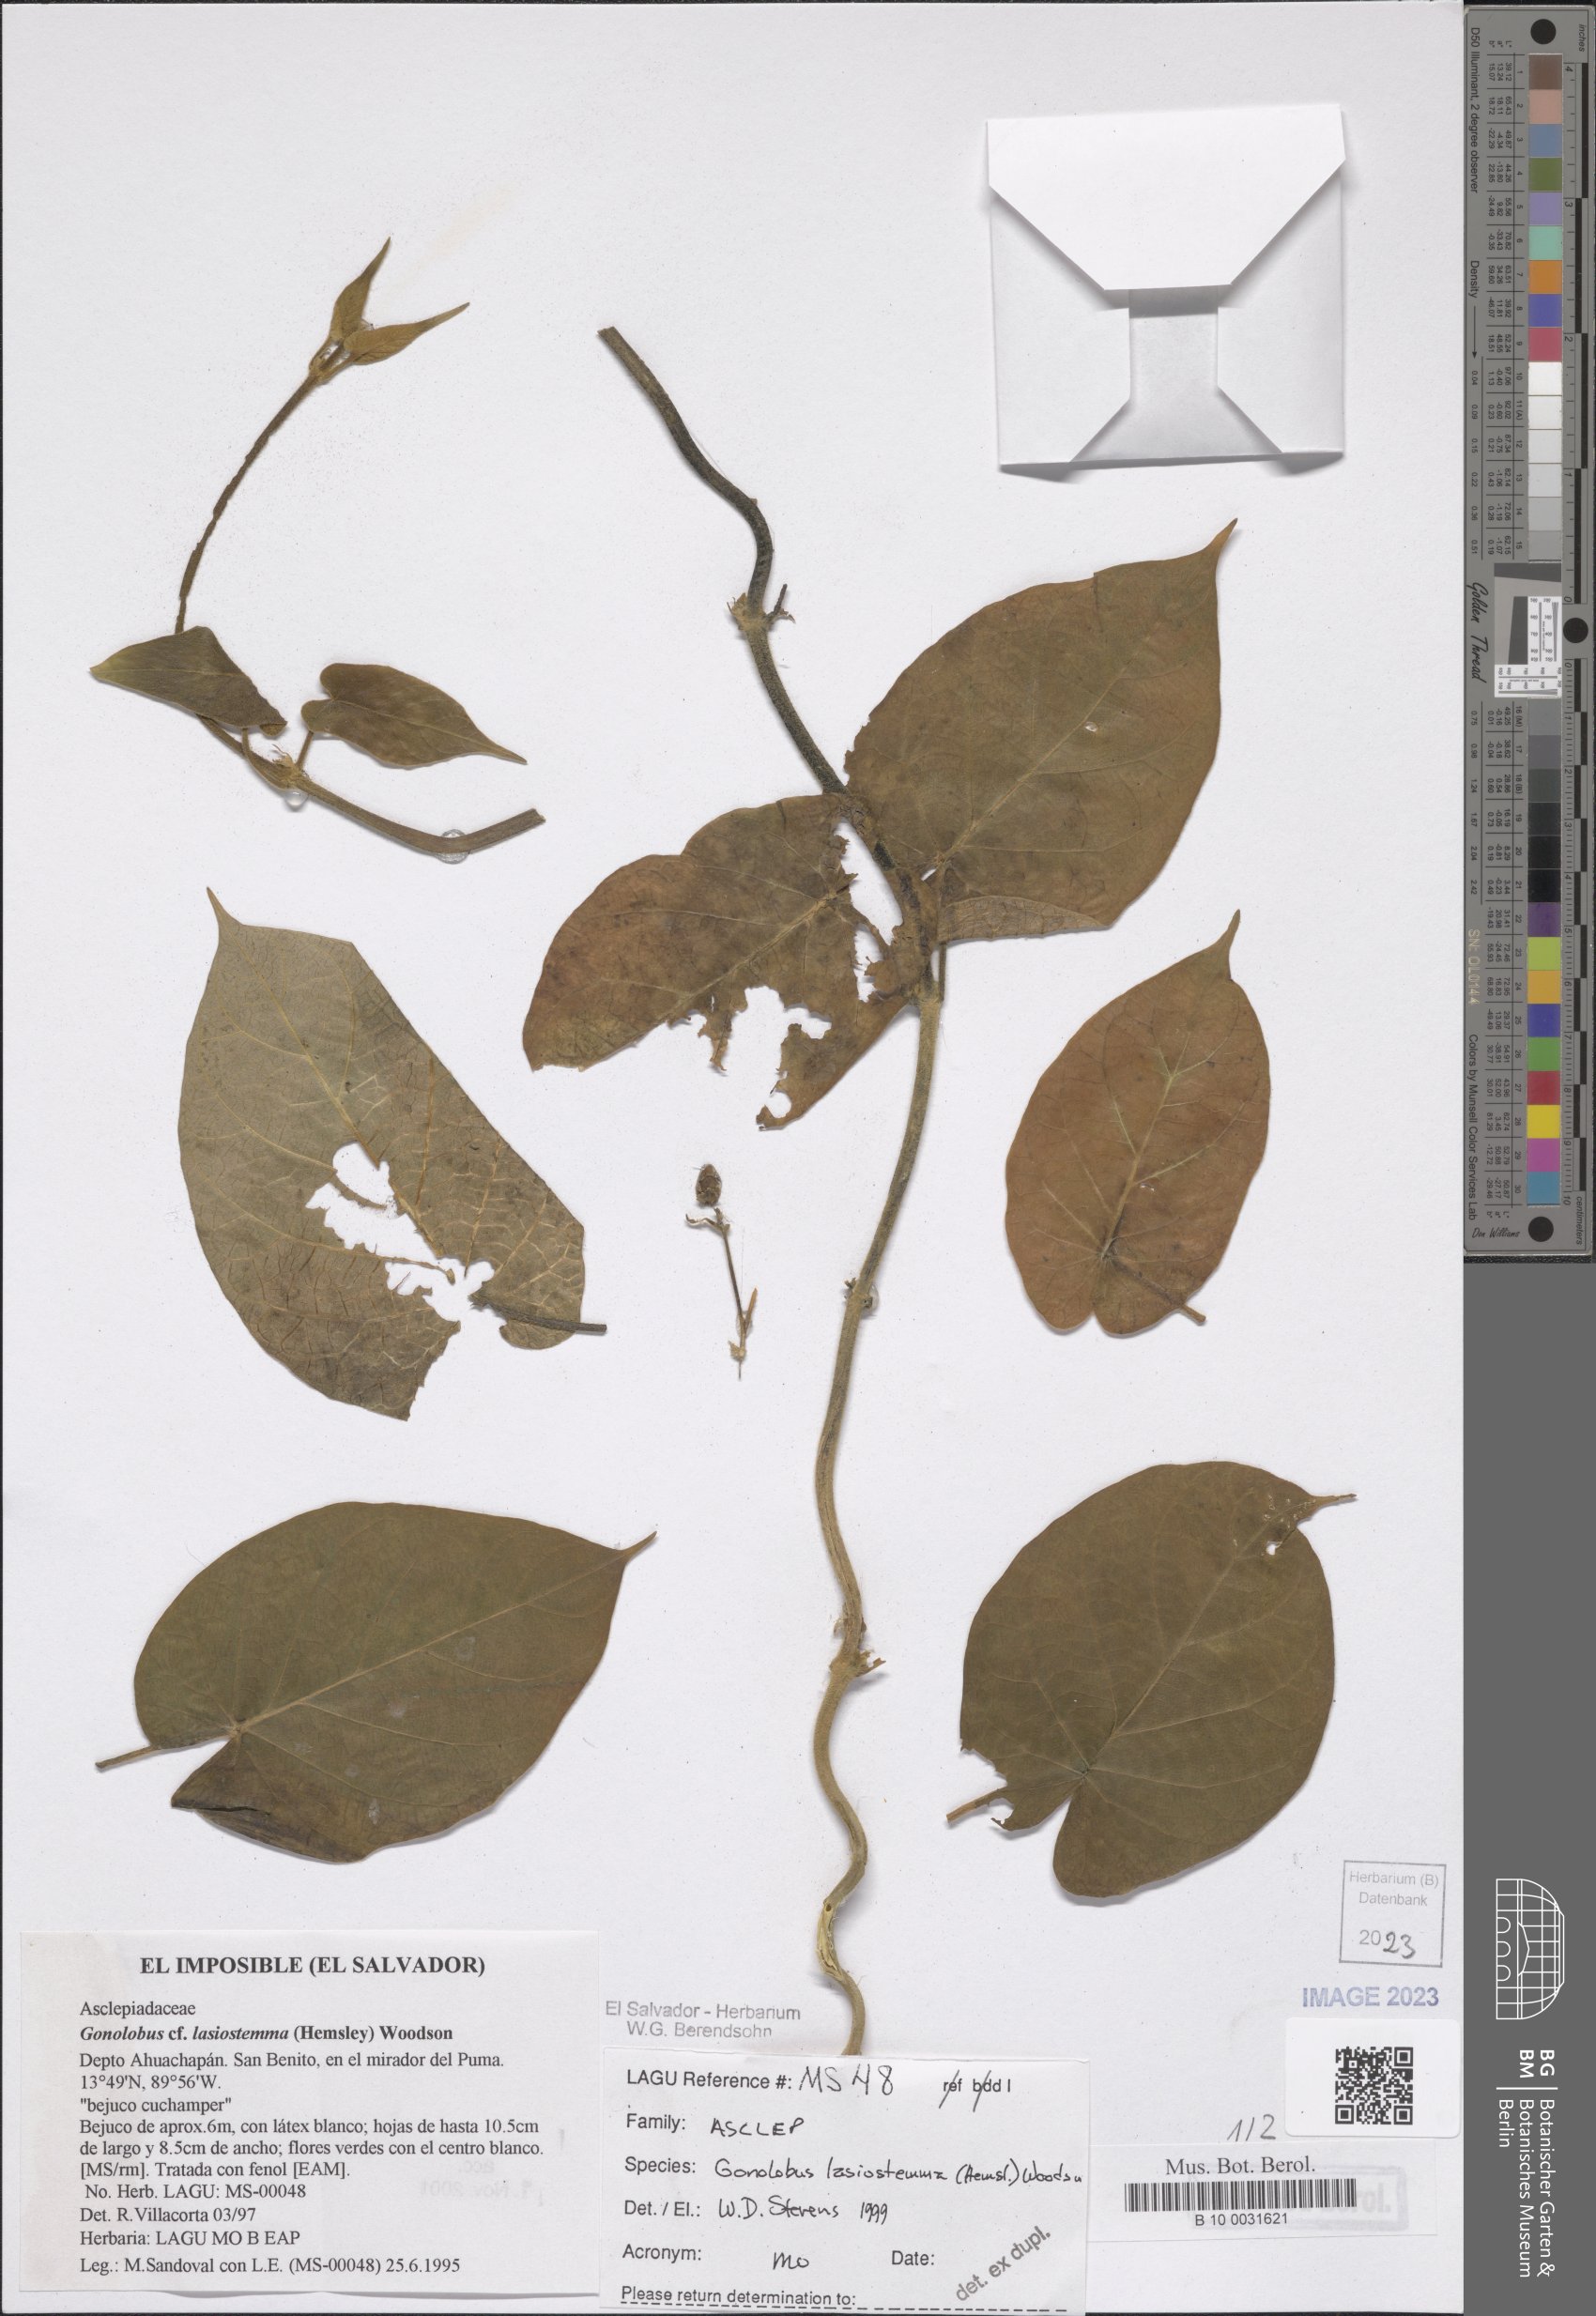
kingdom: Plantae
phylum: Tracheophyta
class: Magnoliopsida
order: Gentianales
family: Apocynaceae
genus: Gonolobus
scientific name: Gonolobus lasiostemma
